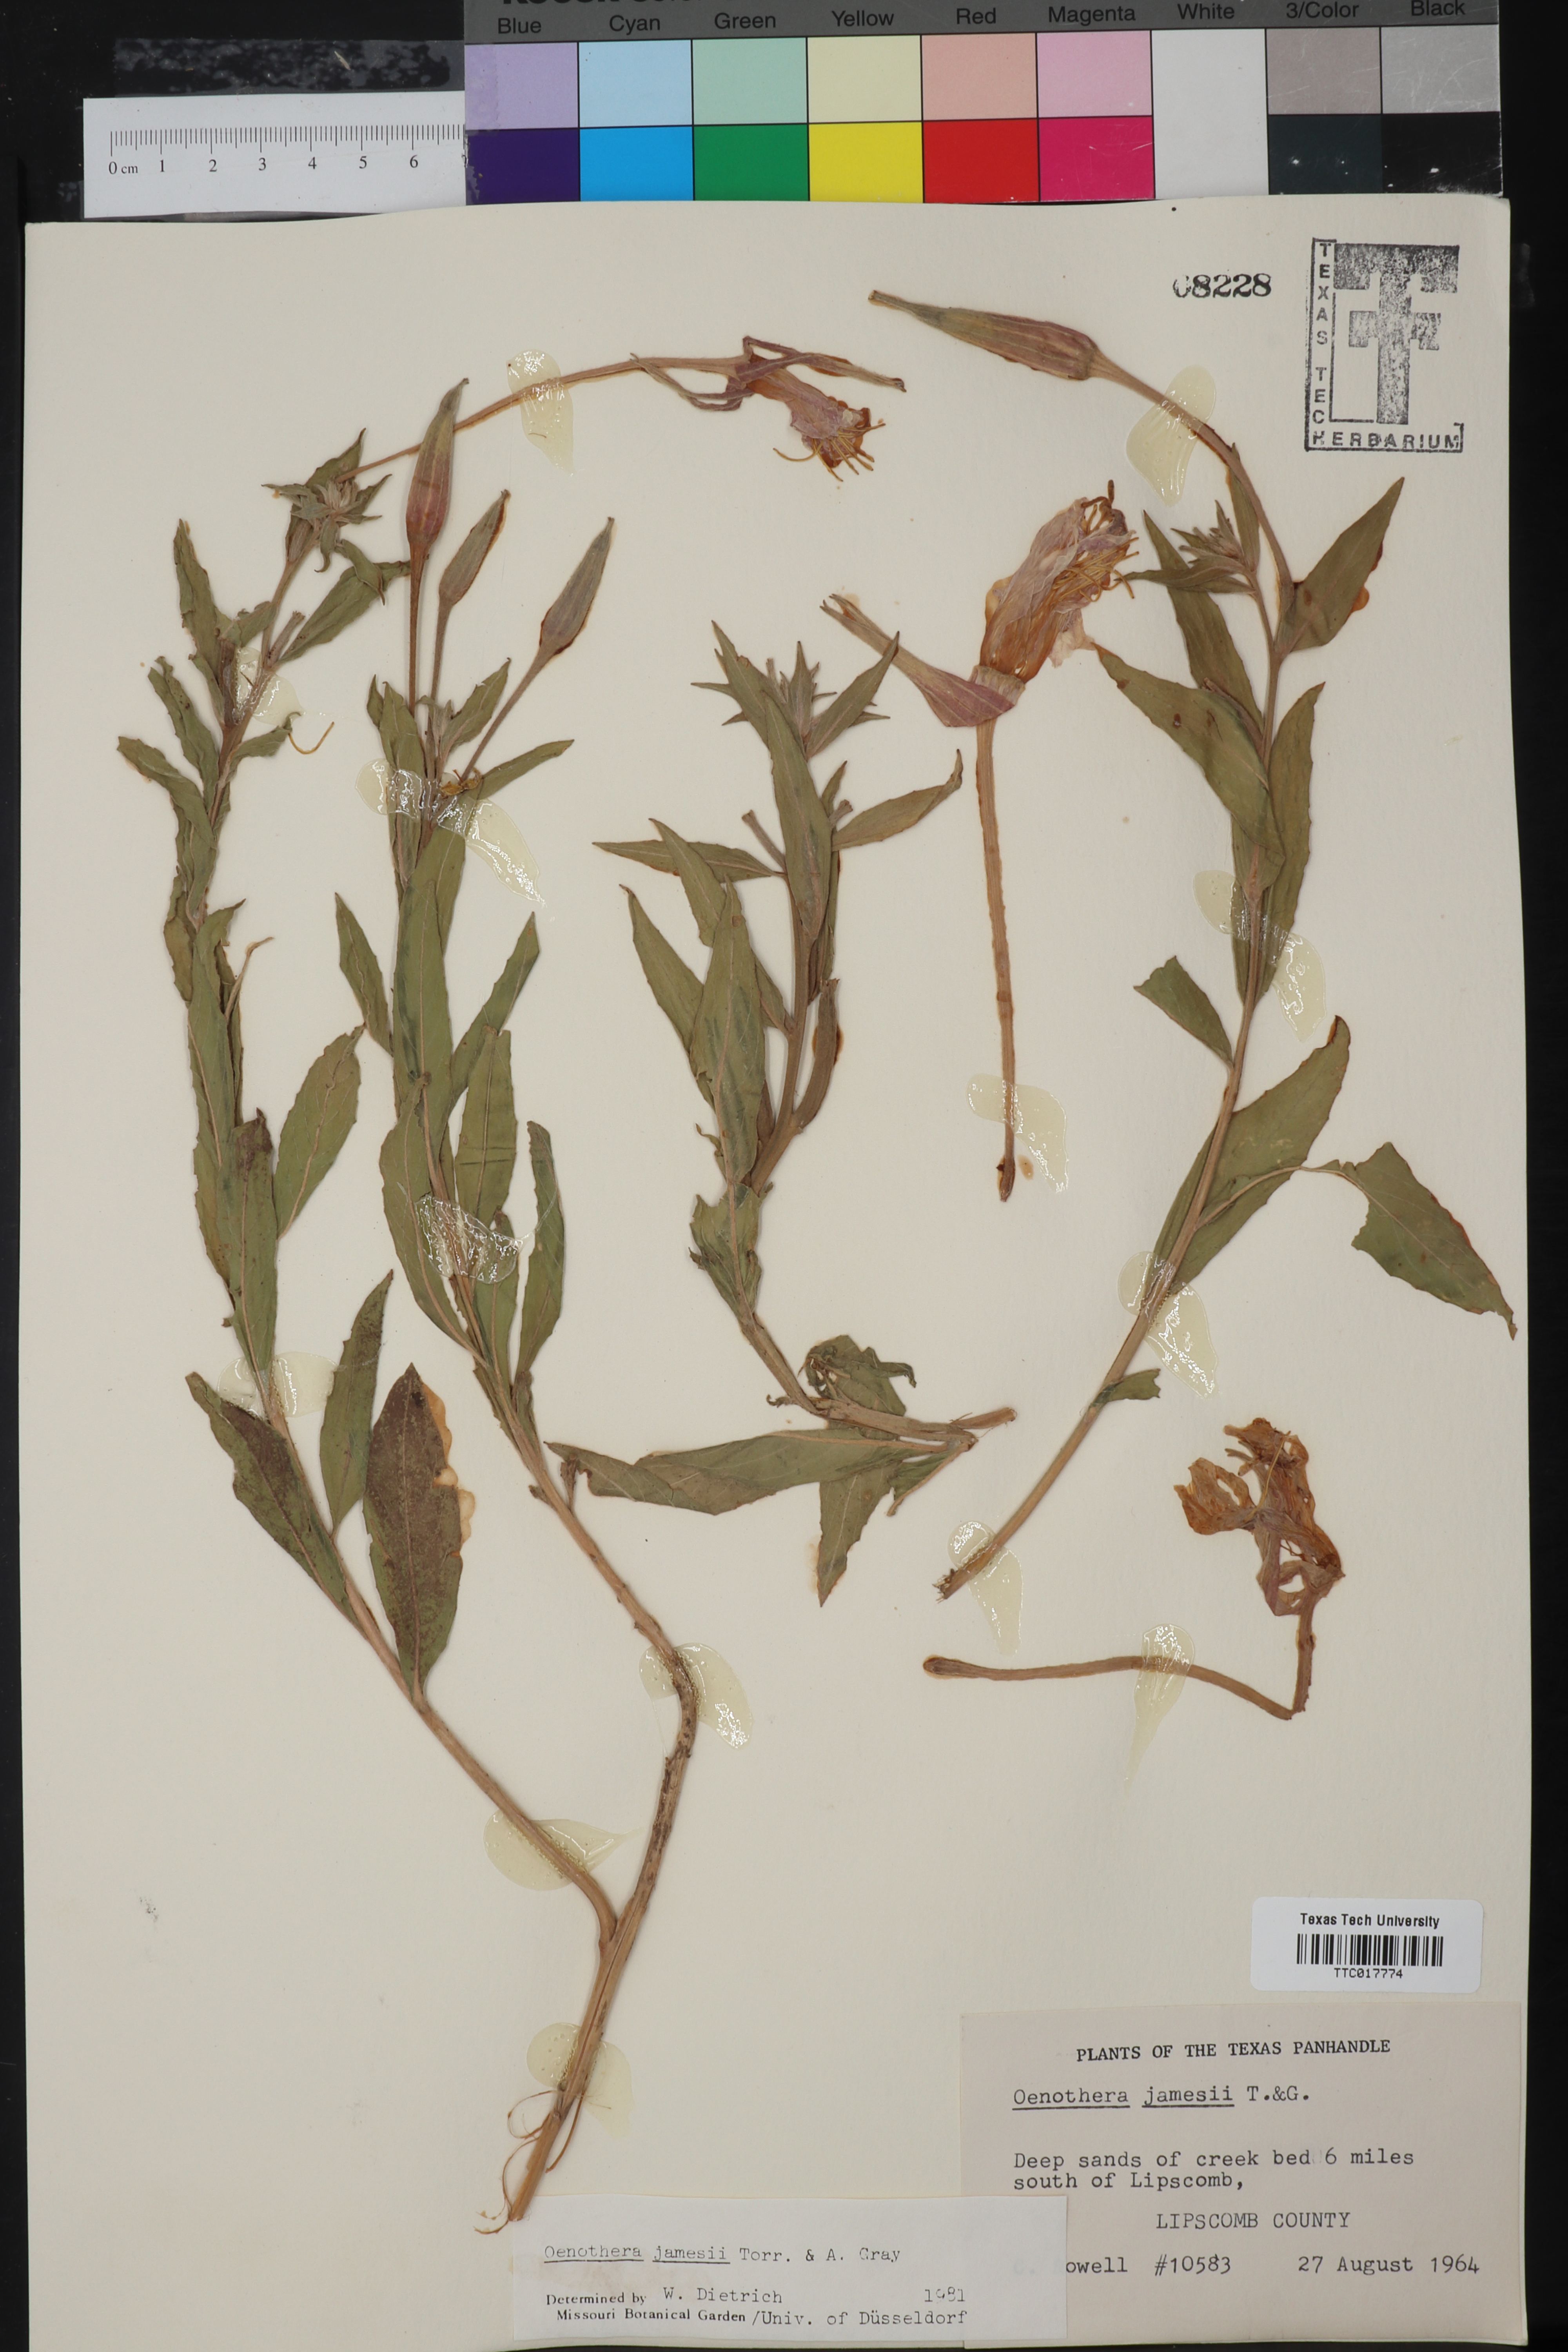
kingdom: Plantae
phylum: Tracheophyta
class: Magnoliopsida
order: Myrtales
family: Onagraceae
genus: Oenothera
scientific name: Oenothera jamesii
